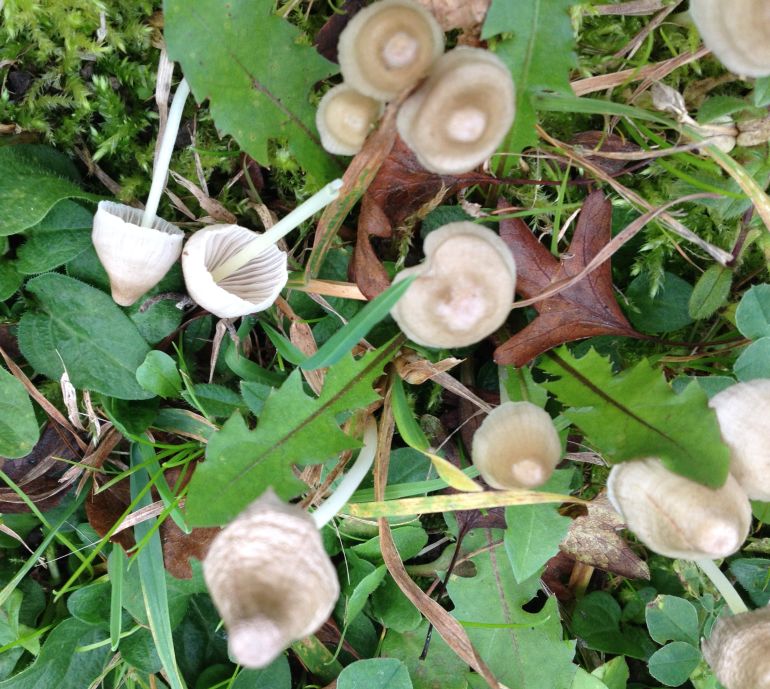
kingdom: Fungi
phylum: Basidiomycota
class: Agaricomycetes
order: Agaricales
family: Mycenaceae
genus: Mycena
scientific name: Mycena galericulata
